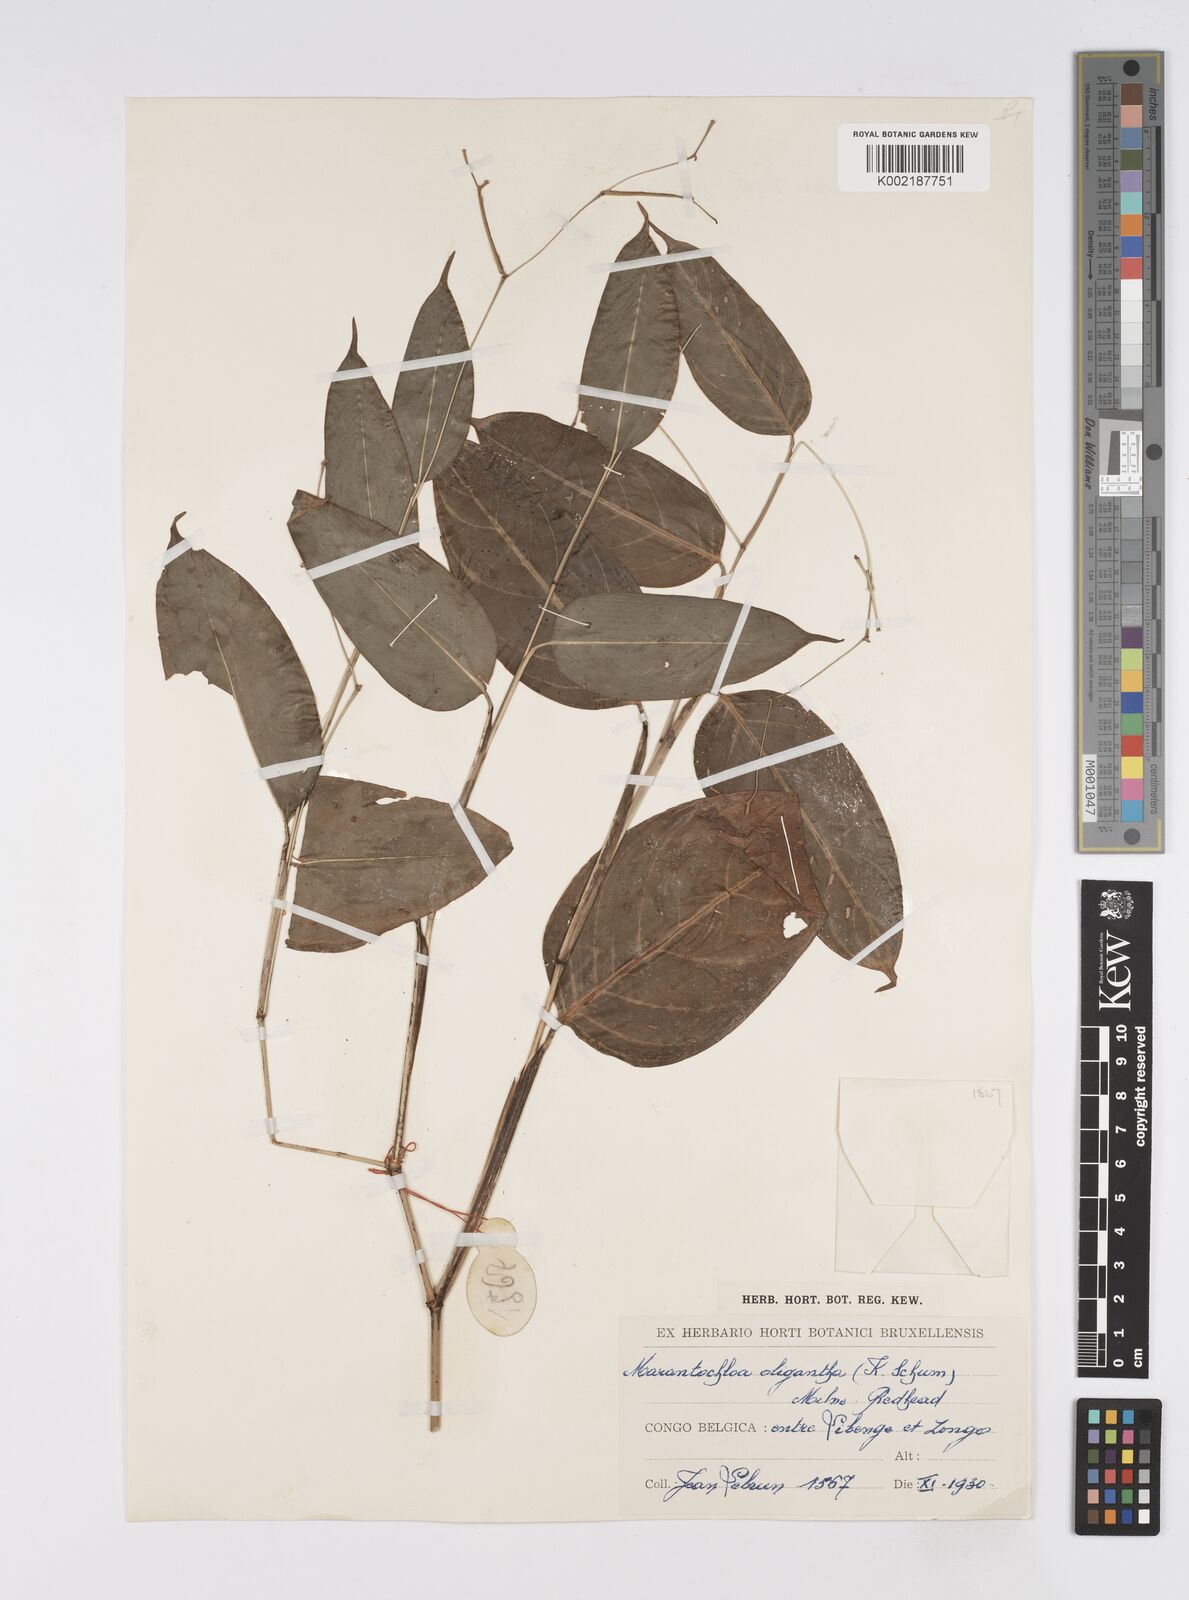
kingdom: Plantae
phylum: Tracheophyta
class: Liliopsida
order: Zingiberales
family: Marantaceae
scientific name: Marantaceae
